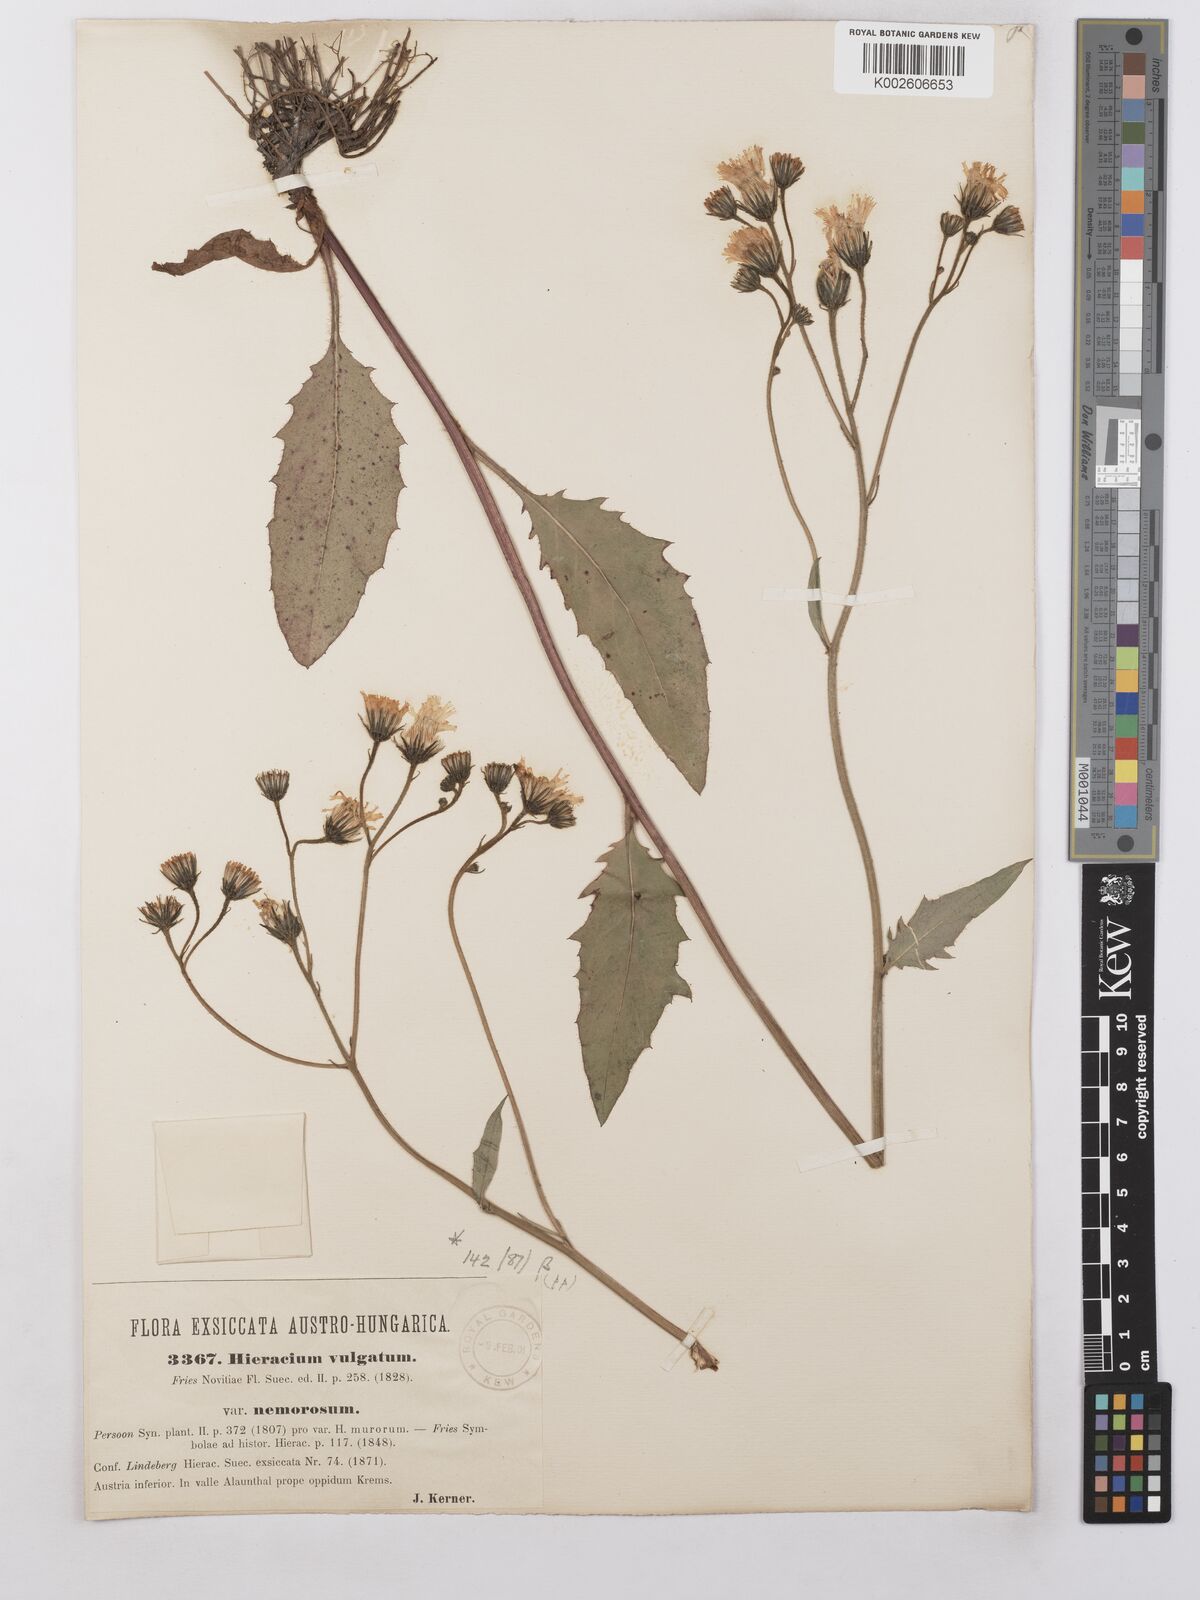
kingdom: Plantae
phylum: Tracheophyta
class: Magnoliopsida
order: Asterales
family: Asteraceae
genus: Hieracium
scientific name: Hieracium lachenalii
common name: Common hawkweed
